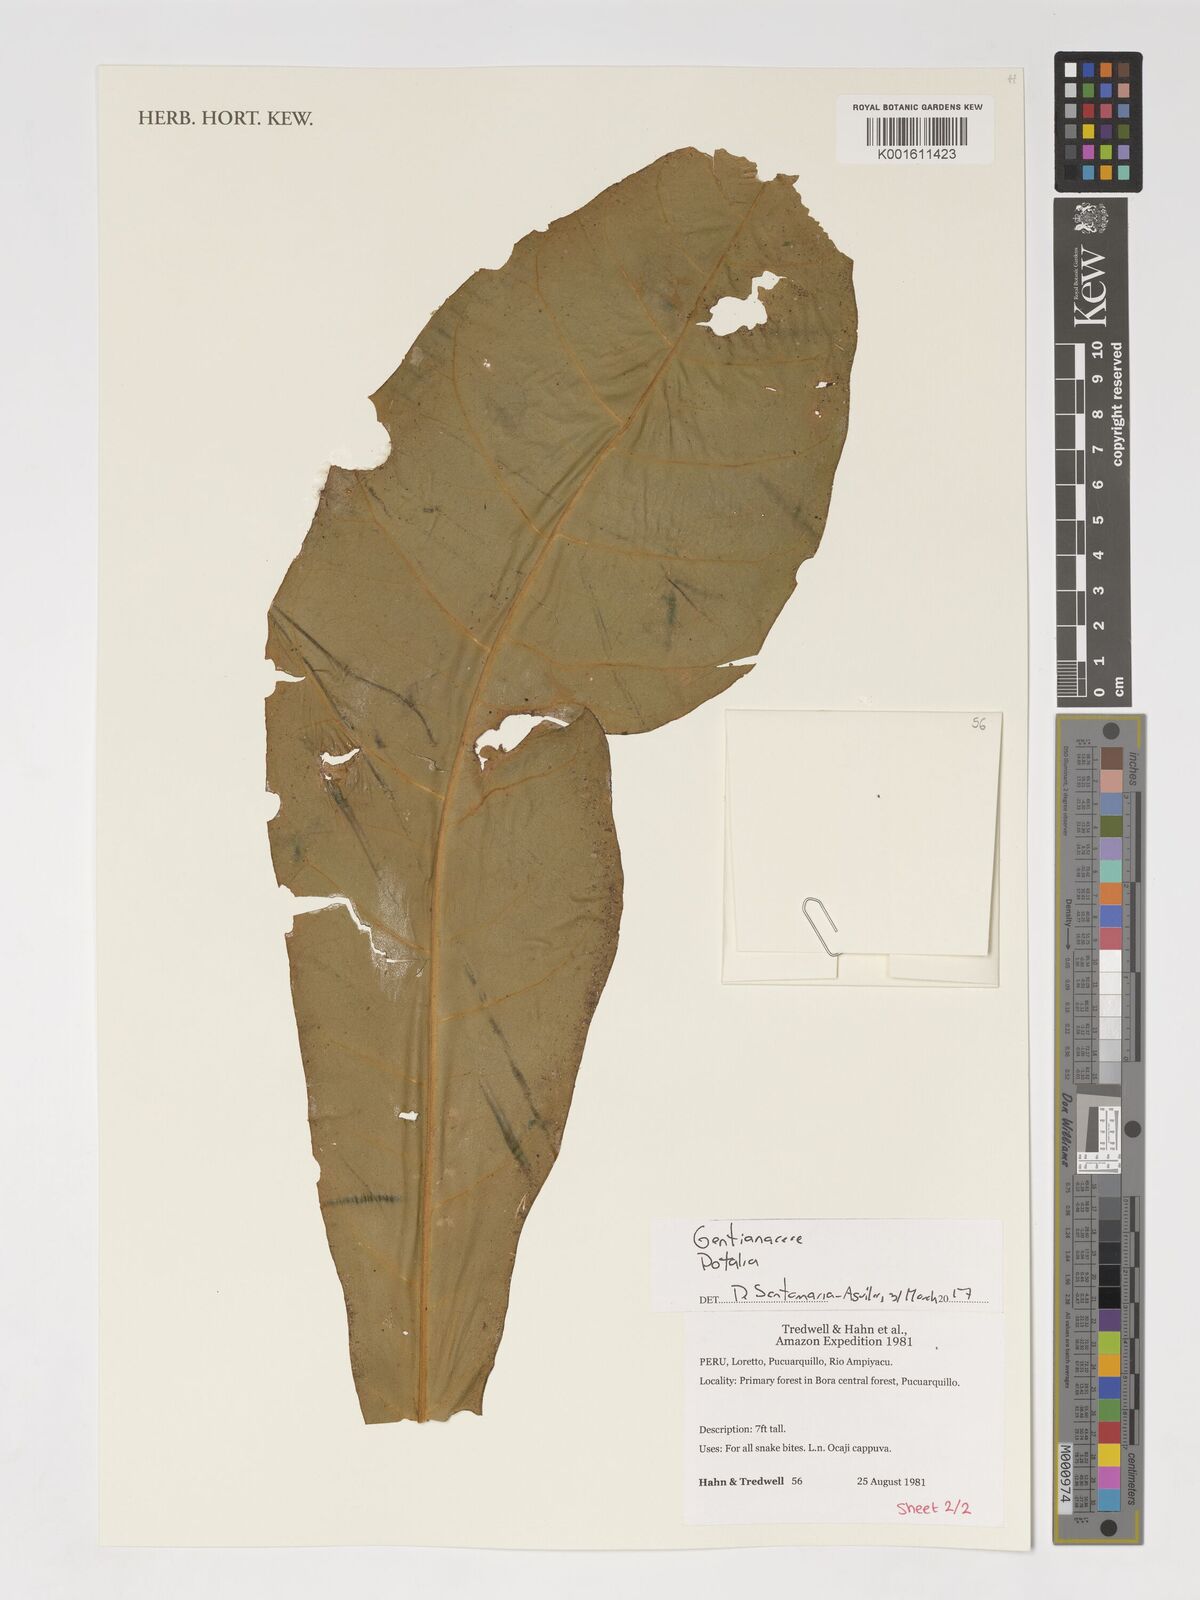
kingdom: Plantae
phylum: Tracheophyta
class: Magnoliopsida
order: Gentianales
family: Gentianaceae
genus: Potalia
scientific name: Potalia
